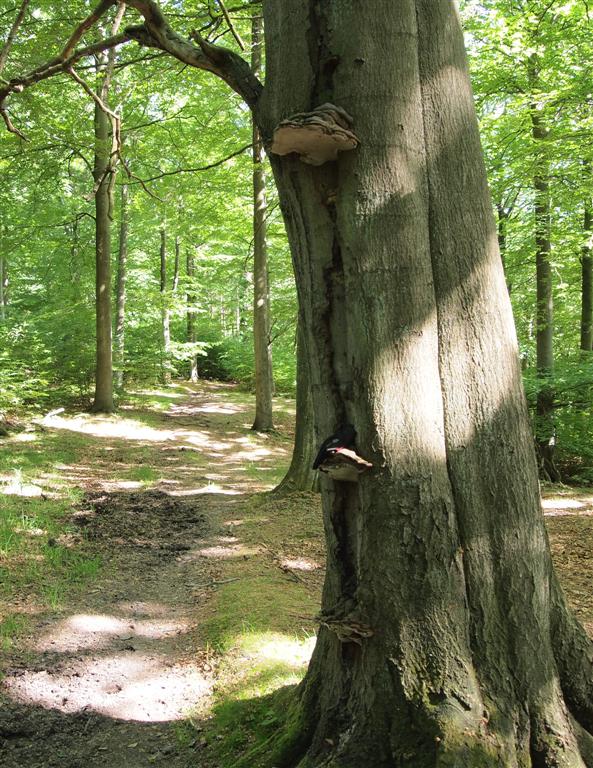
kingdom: Fungi
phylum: Basidiomycota
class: Agaricomycetes
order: Polyporales
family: Polyporaceae
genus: Ganoderma
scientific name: Ganoderma adspersum
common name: grov lakporesvamp
